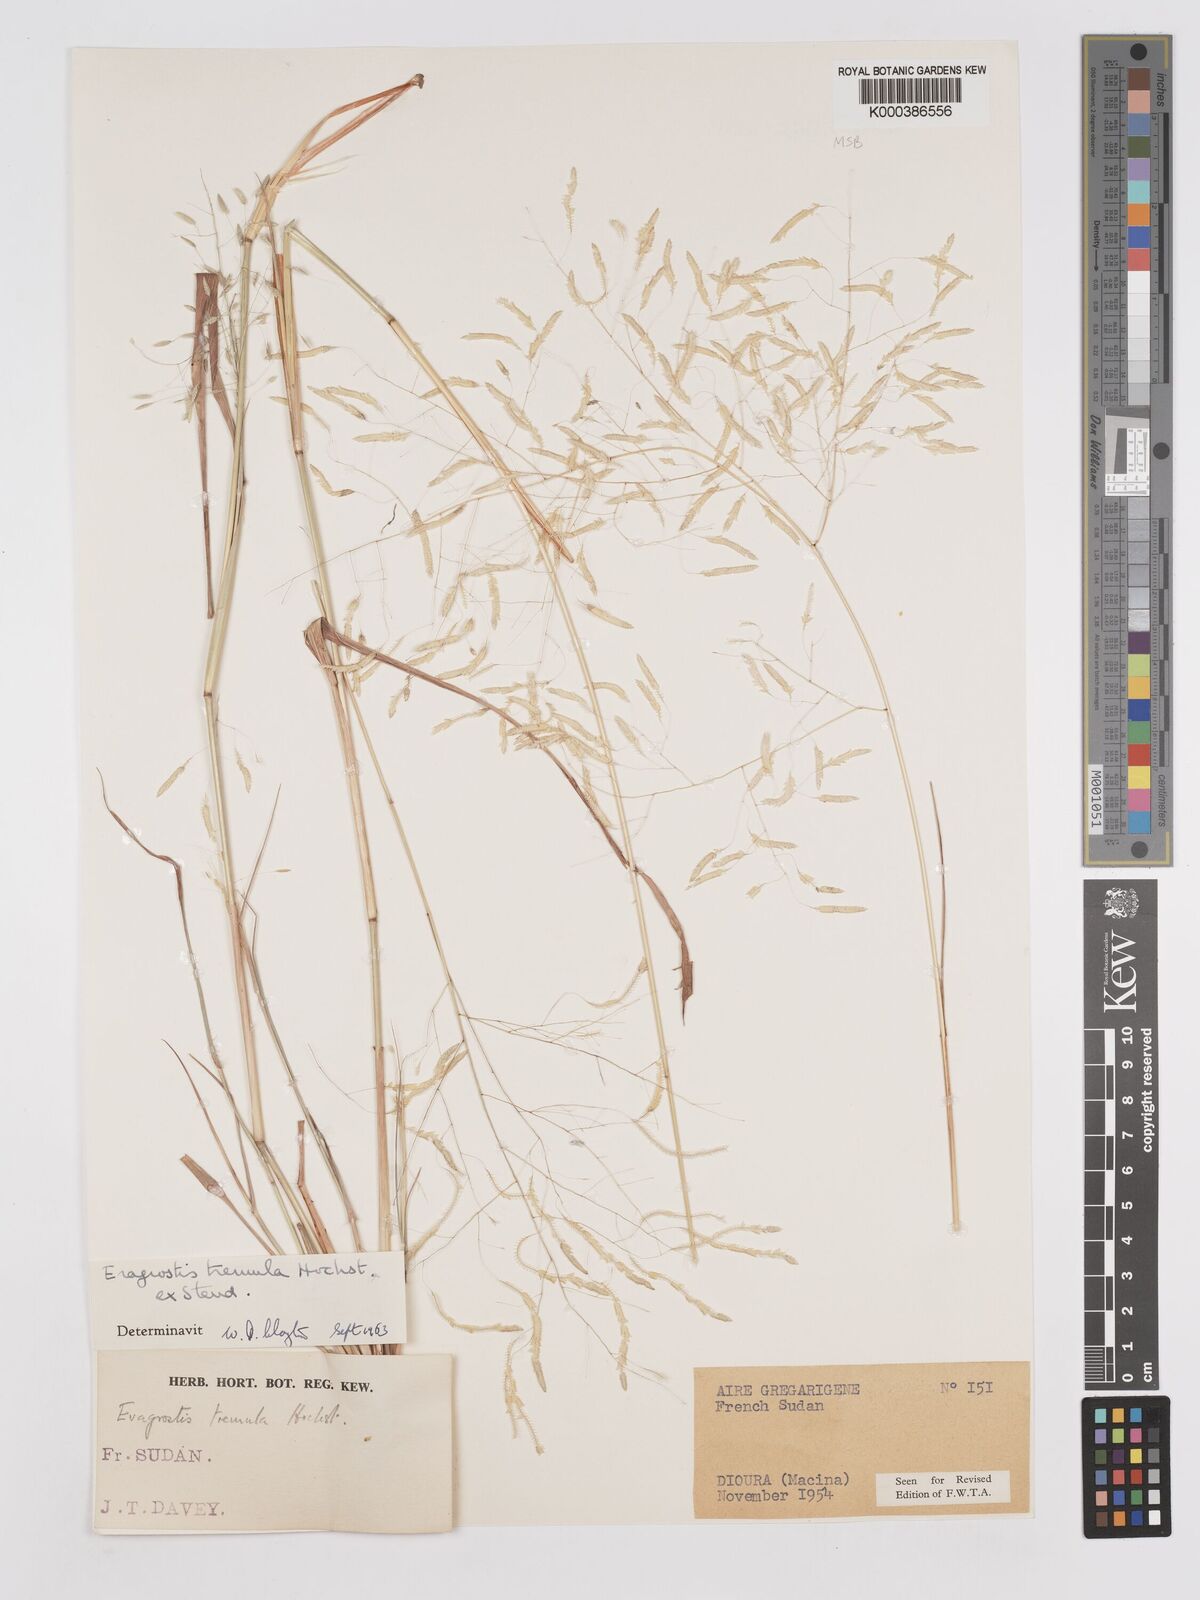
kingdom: Plantae
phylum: Tracheophyta
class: Liliopsida
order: Poales
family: Poaceae
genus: Eragrostis
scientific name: Eragrostis tremula
